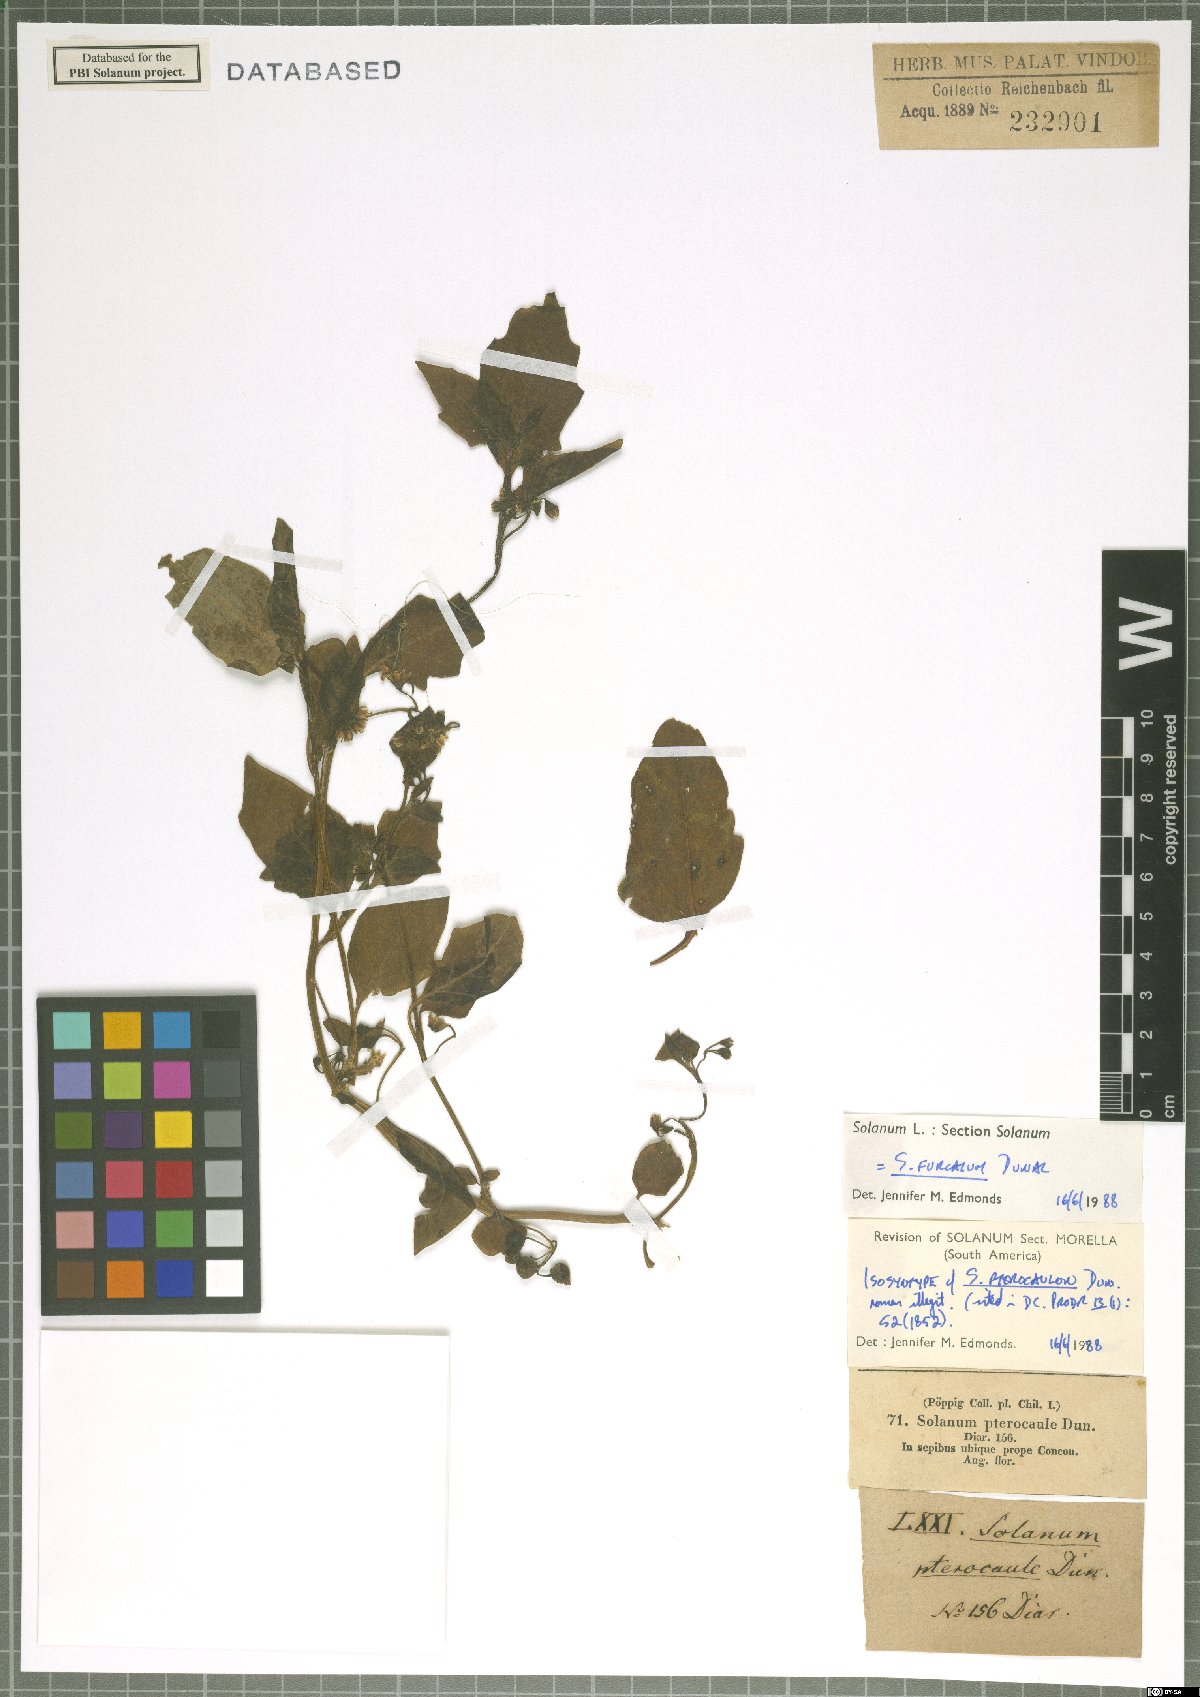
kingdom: Plantae
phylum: Tracheophyta
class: Magnoliopsida
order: Solanales
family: Solanaceae
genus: Solanum
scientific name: Solanum furcatum
